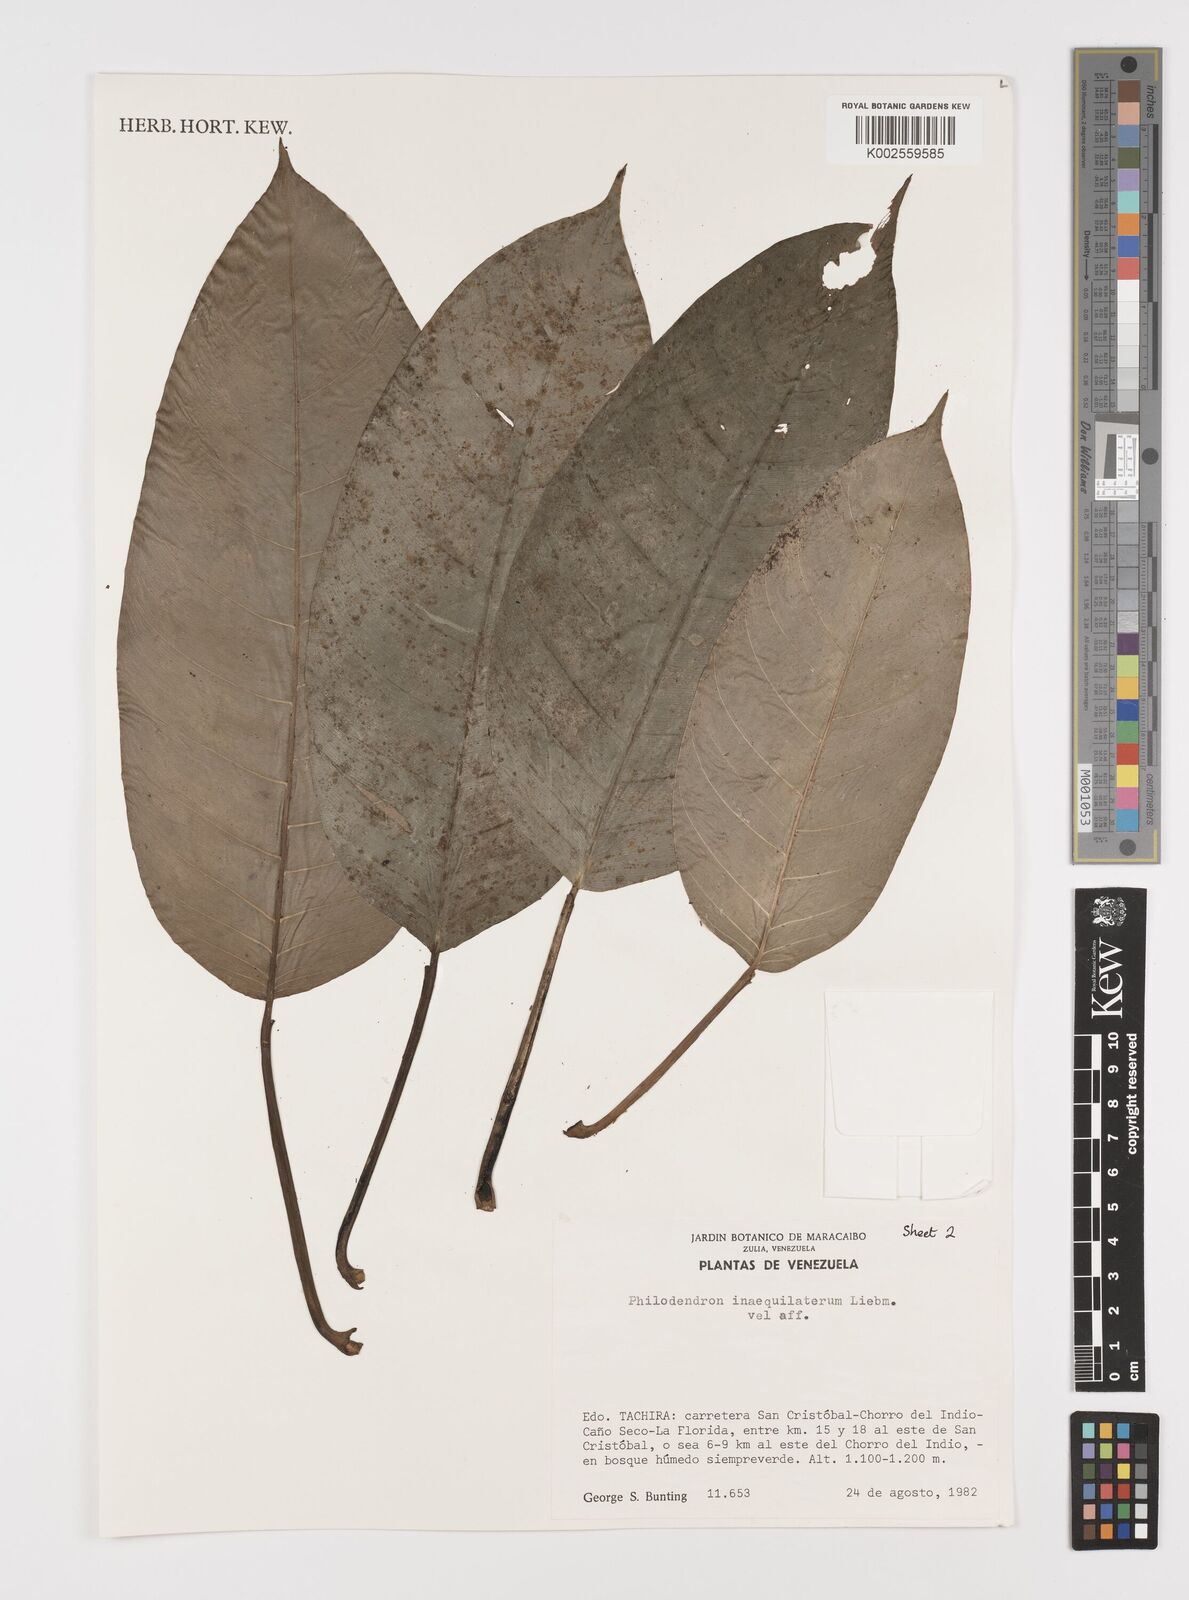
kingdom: Plantae
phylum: Tracheophyta
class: Liliopsida
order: Alismatales
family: Araceae
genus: Philodendron
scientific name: Philodendron inaequilaterum
